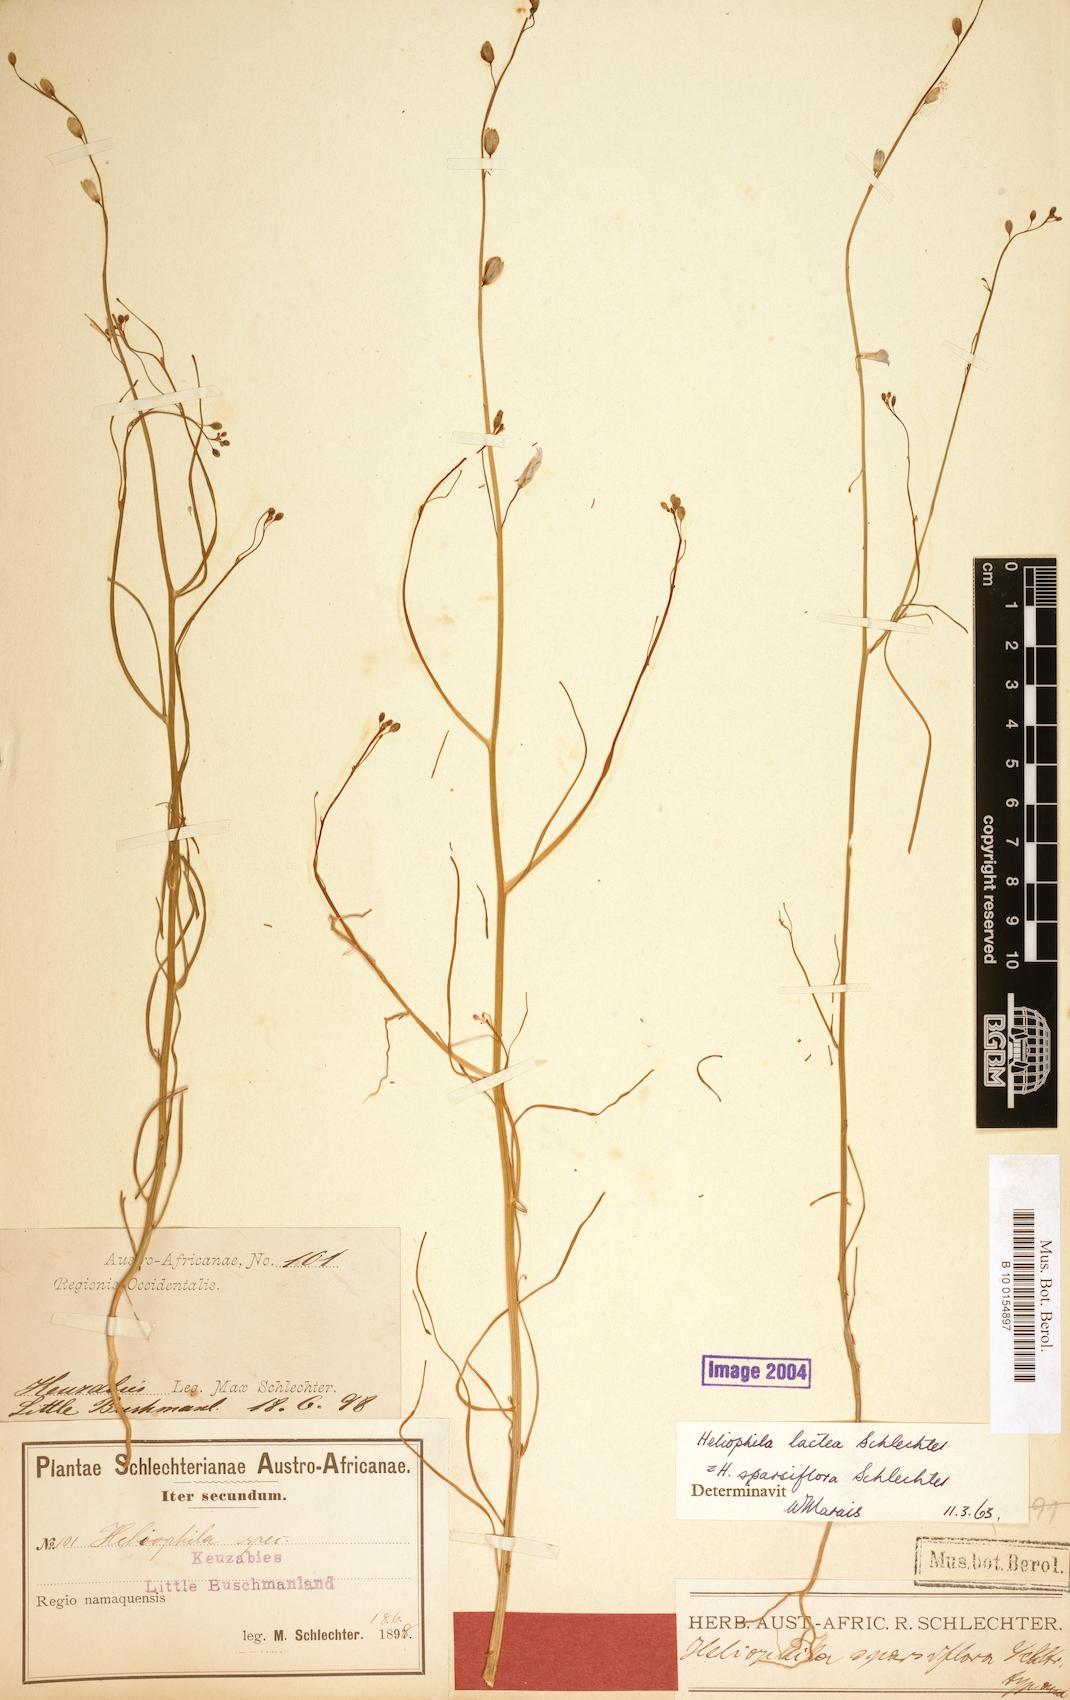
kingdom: Plantae
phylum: Tracheophyta
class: Magnoliopsida
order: Brassicales
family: Brassicaceae
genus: Heliophila
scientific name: Heliophila lactea
